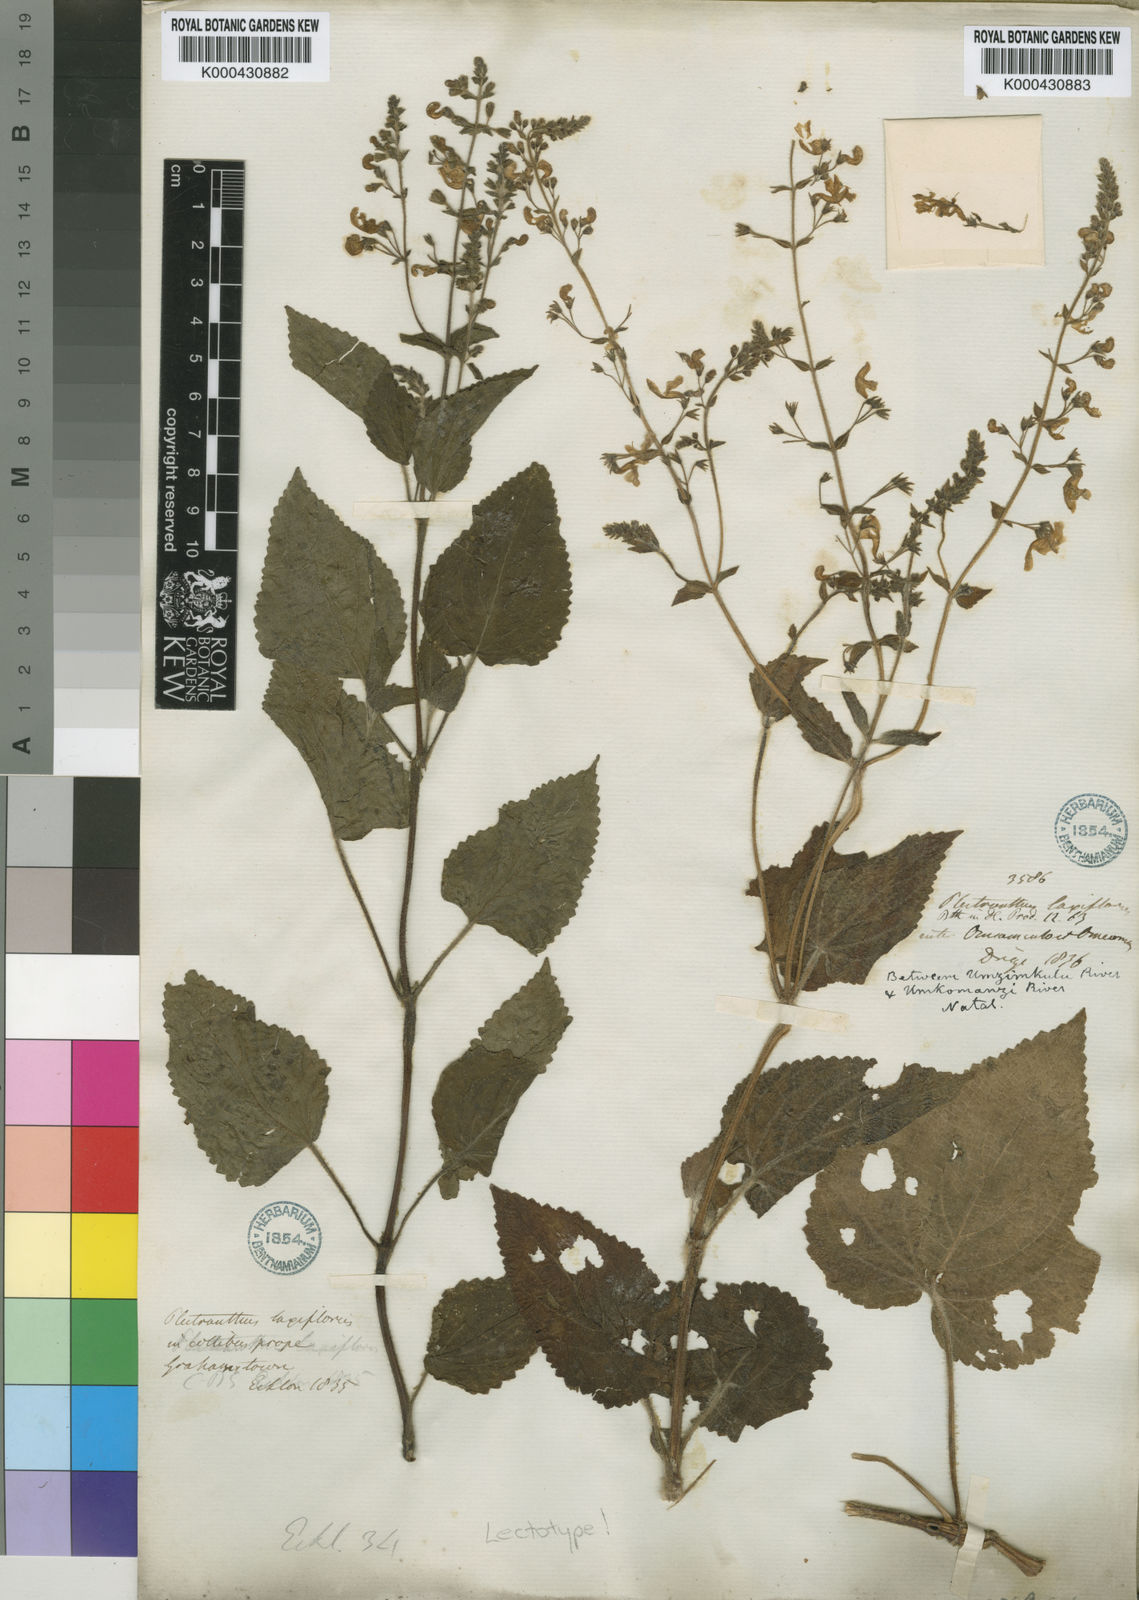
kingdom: Plantae
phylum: Tracheophyta
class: Magnoliopsida
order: Lamiales
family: Lamiaceae
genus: Equilabium
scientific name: Equilabium laxiflorum
